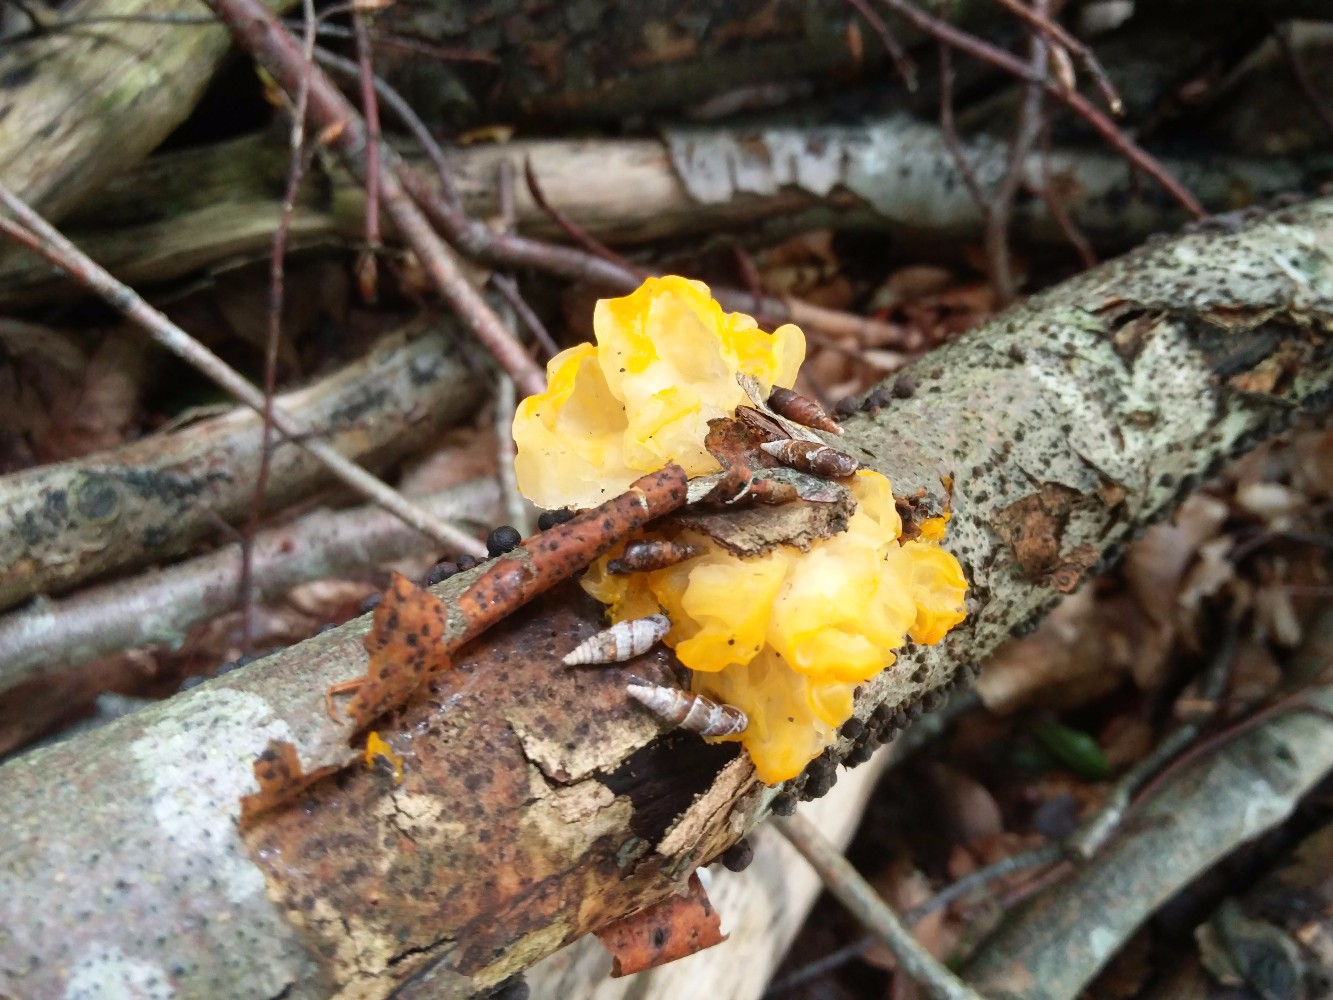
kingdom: Fungi
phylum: Basidiomycota
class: Tremellomycetes
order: Tremellales
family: Tremellaceae
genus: Tremella
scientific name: Tremella mesenterica
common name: gul bævresvamp
